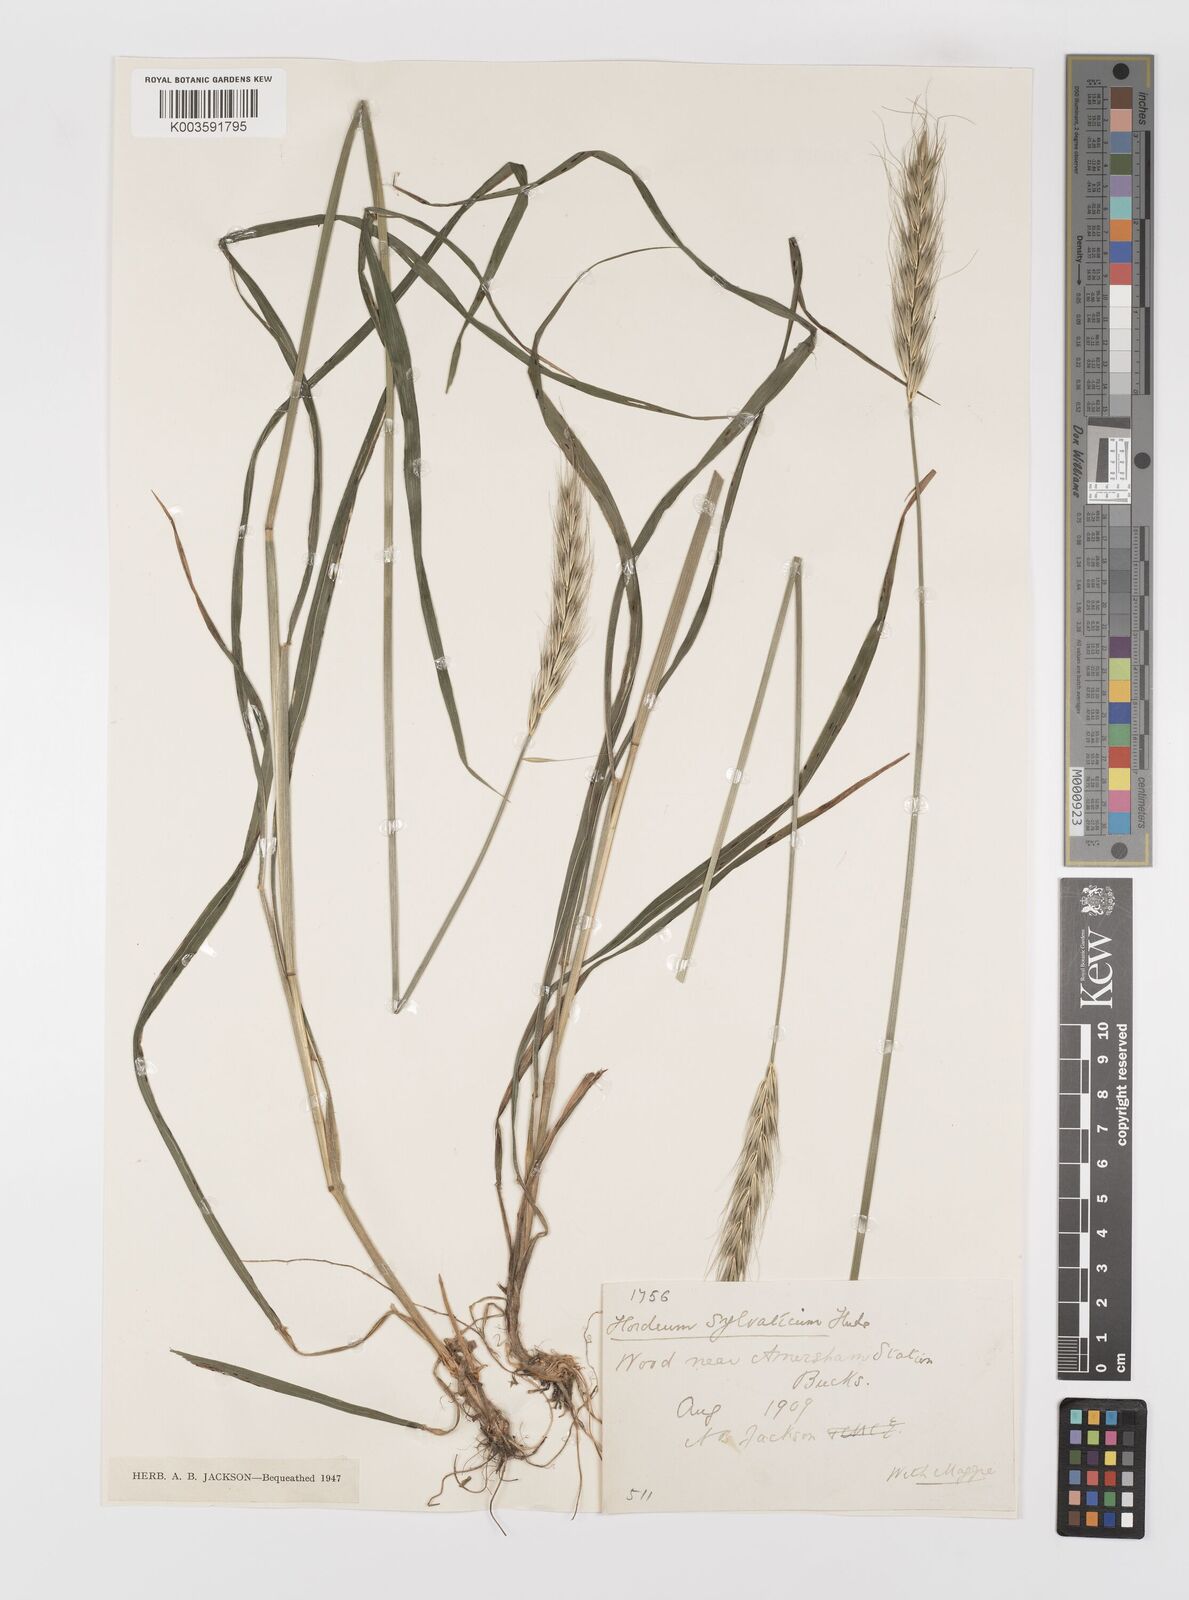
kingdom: Plantae
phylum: Tracheophyta
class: Liliopsida
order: Poales
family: Poaceae
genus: Hordelymus
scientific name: Hordelymus europaeus
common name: Wood-barley
